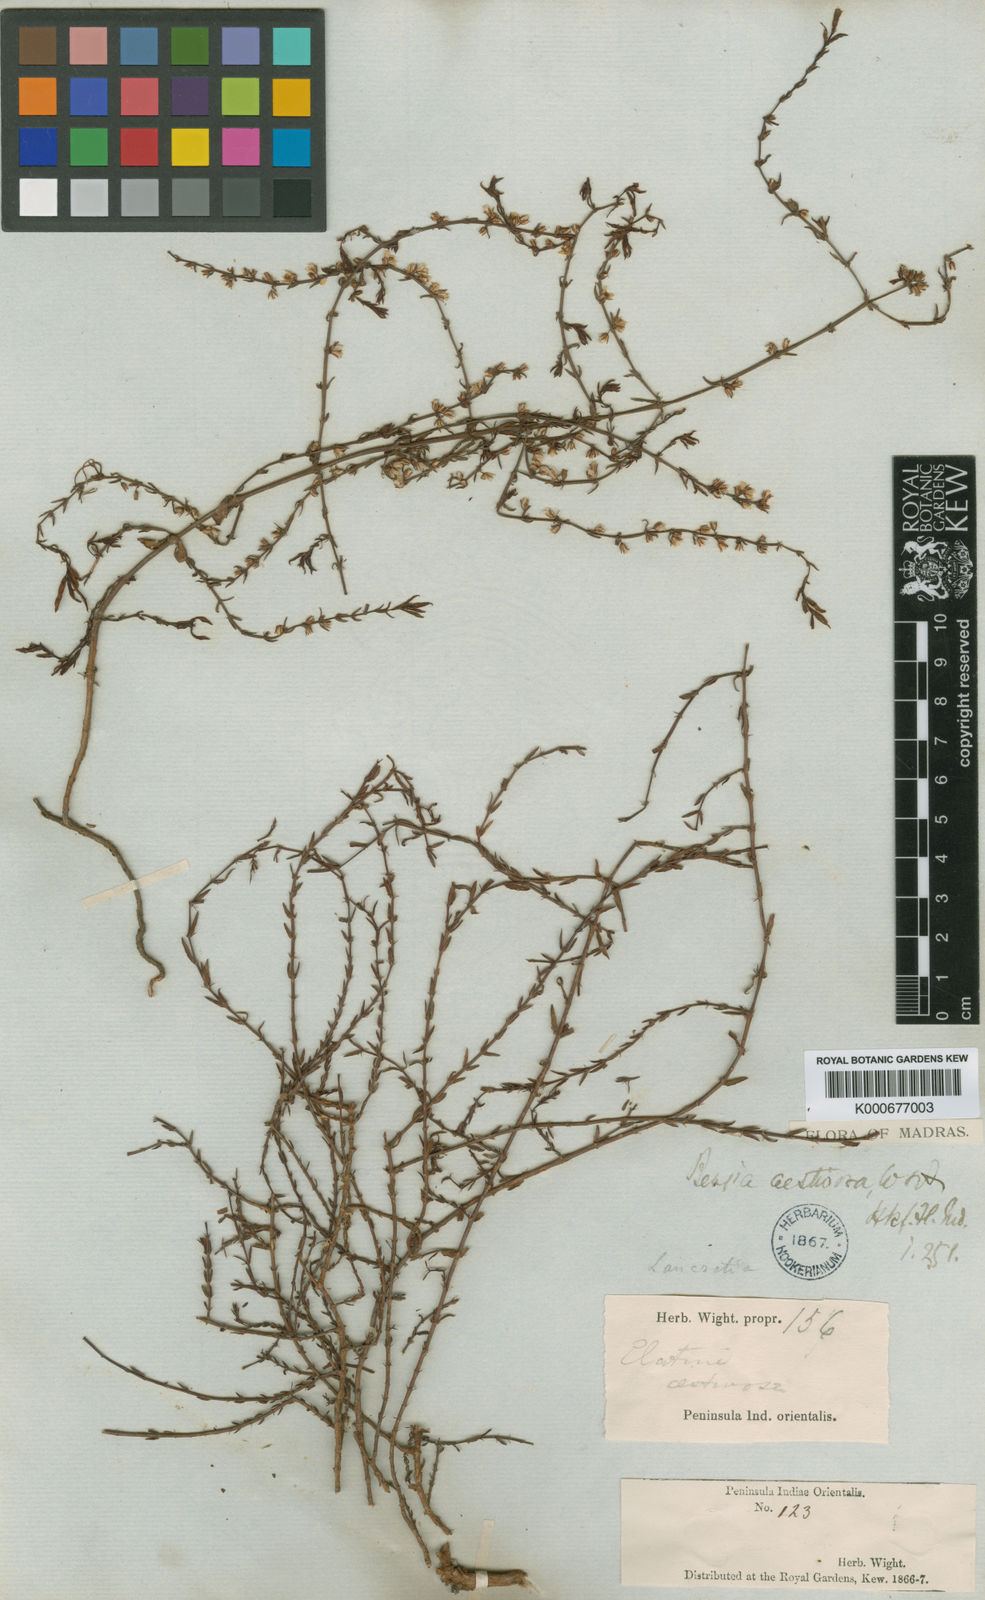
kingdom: Plantae
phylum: Tracheophyta
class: Magnoliopsida
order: Malpighiales
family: Elatinaceae
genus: Bergia
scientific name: Bergia aestivosa
